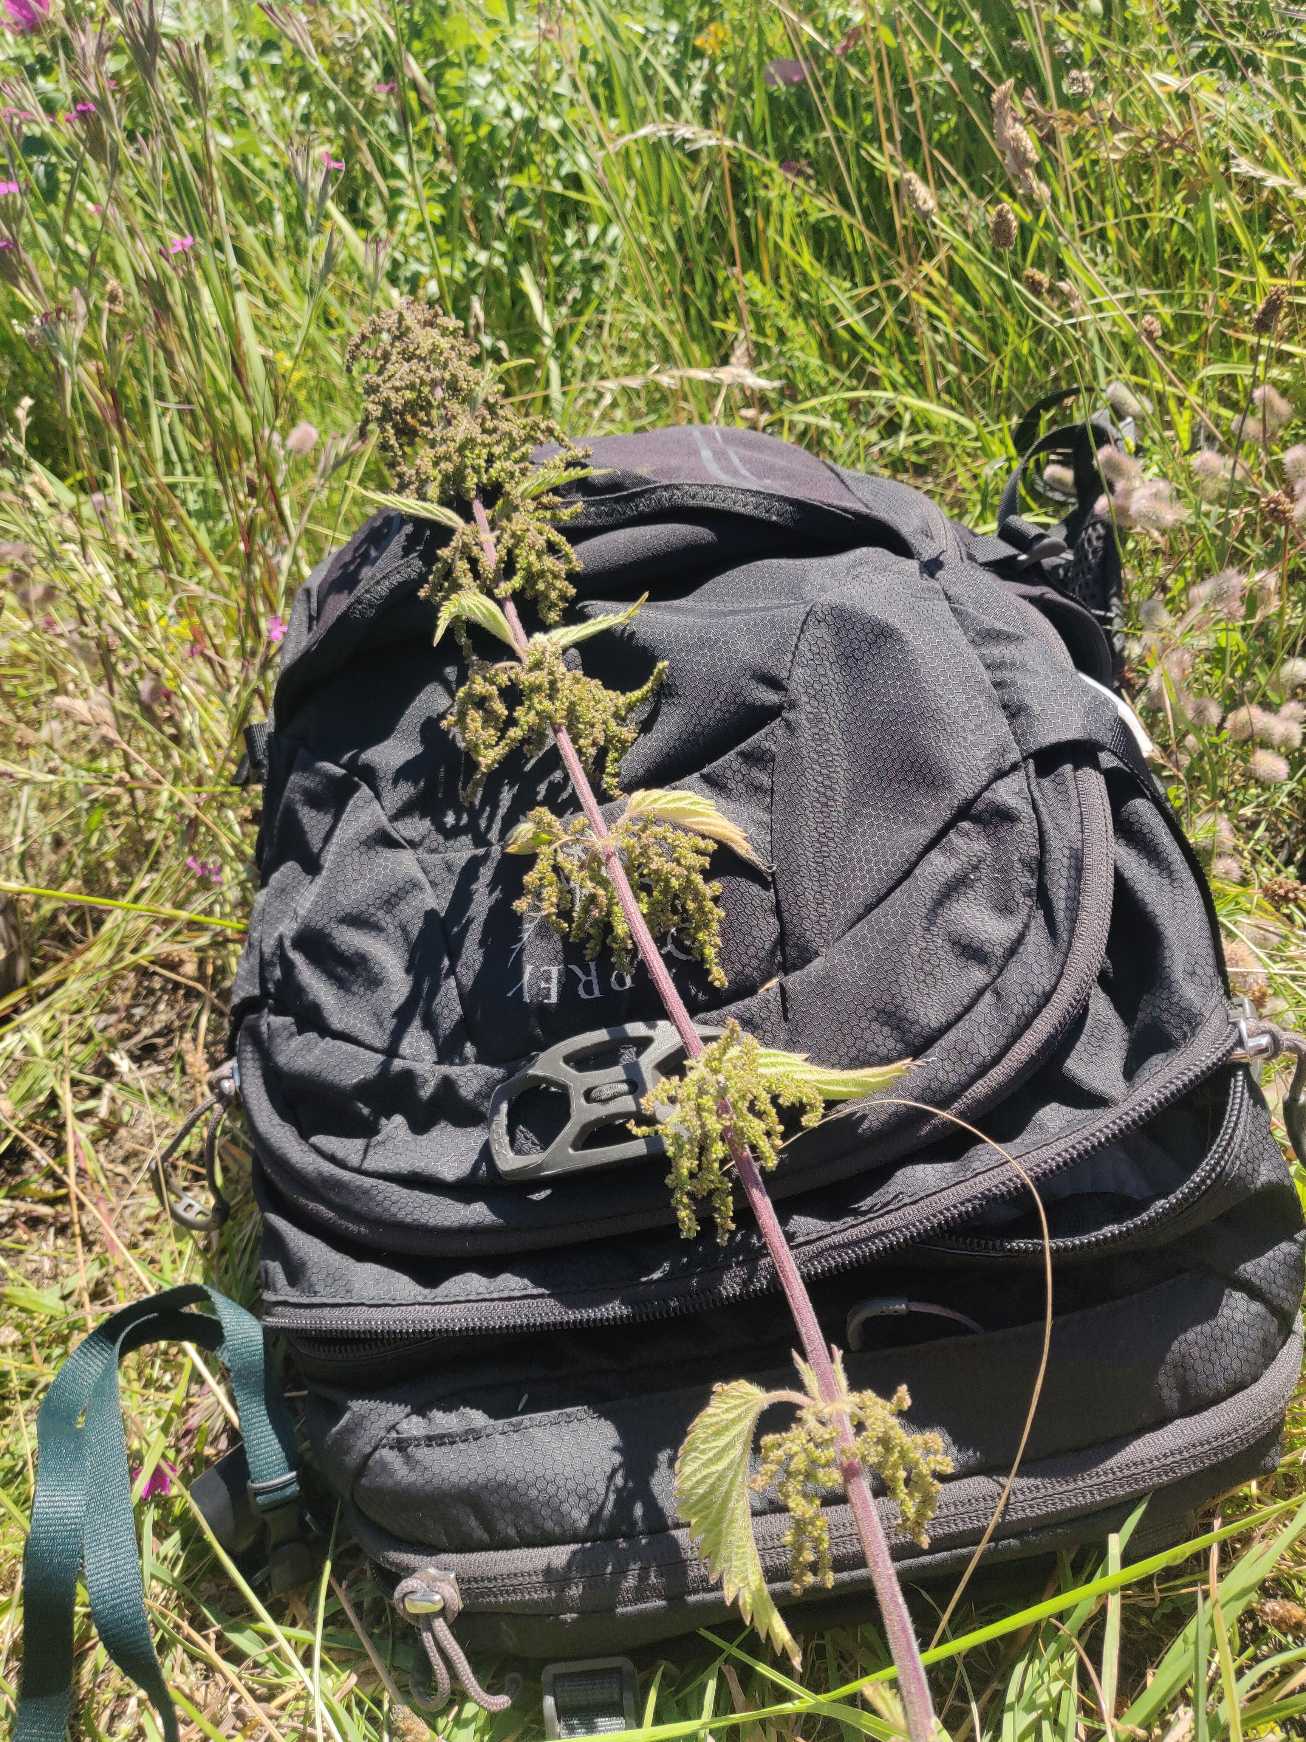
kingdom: Plantae
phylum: Tracheophyta
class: Magnoliopsida
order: Rosales
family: Urticaceae
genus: Urtica
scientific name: Urtica dioica
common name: Stor nælde
